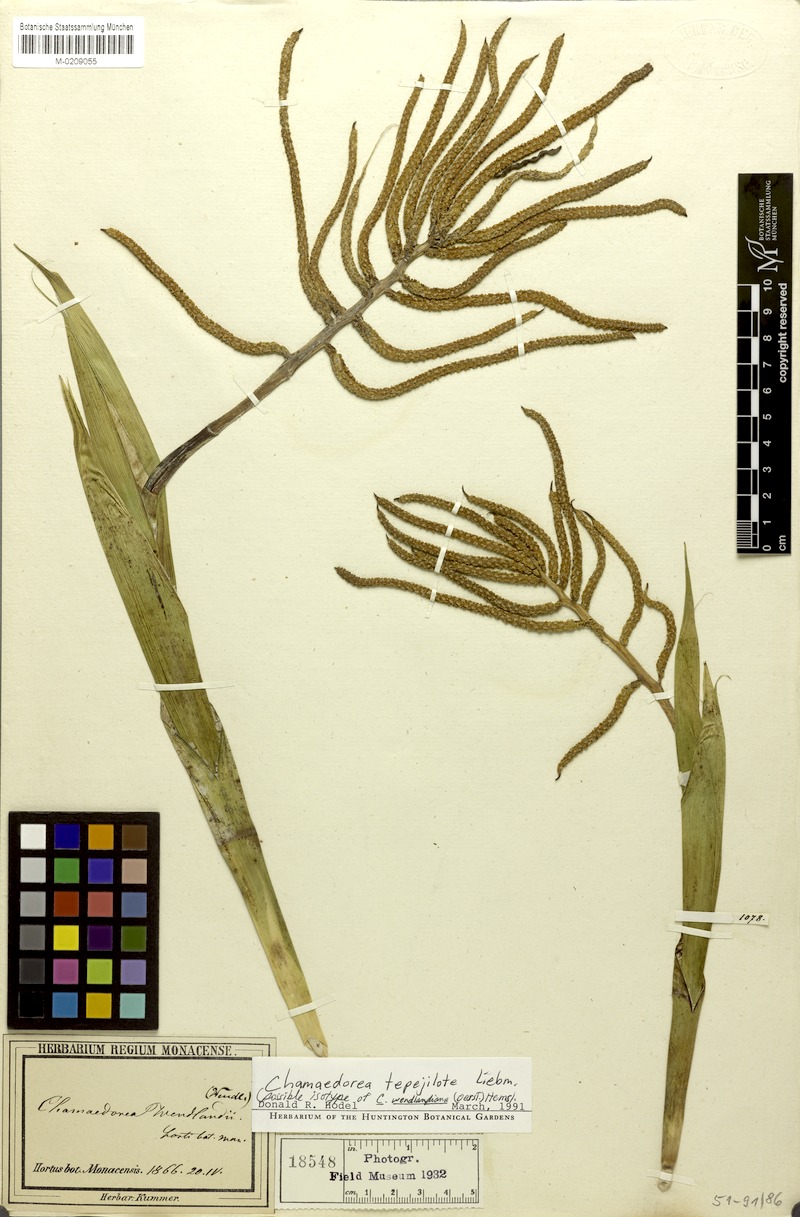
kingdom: Plantae
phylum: Tracheophyta
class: Liliopsida
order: Arecales
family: Arecaceae
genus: Chamaedorea
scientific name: Chamaedorea tepejilote
